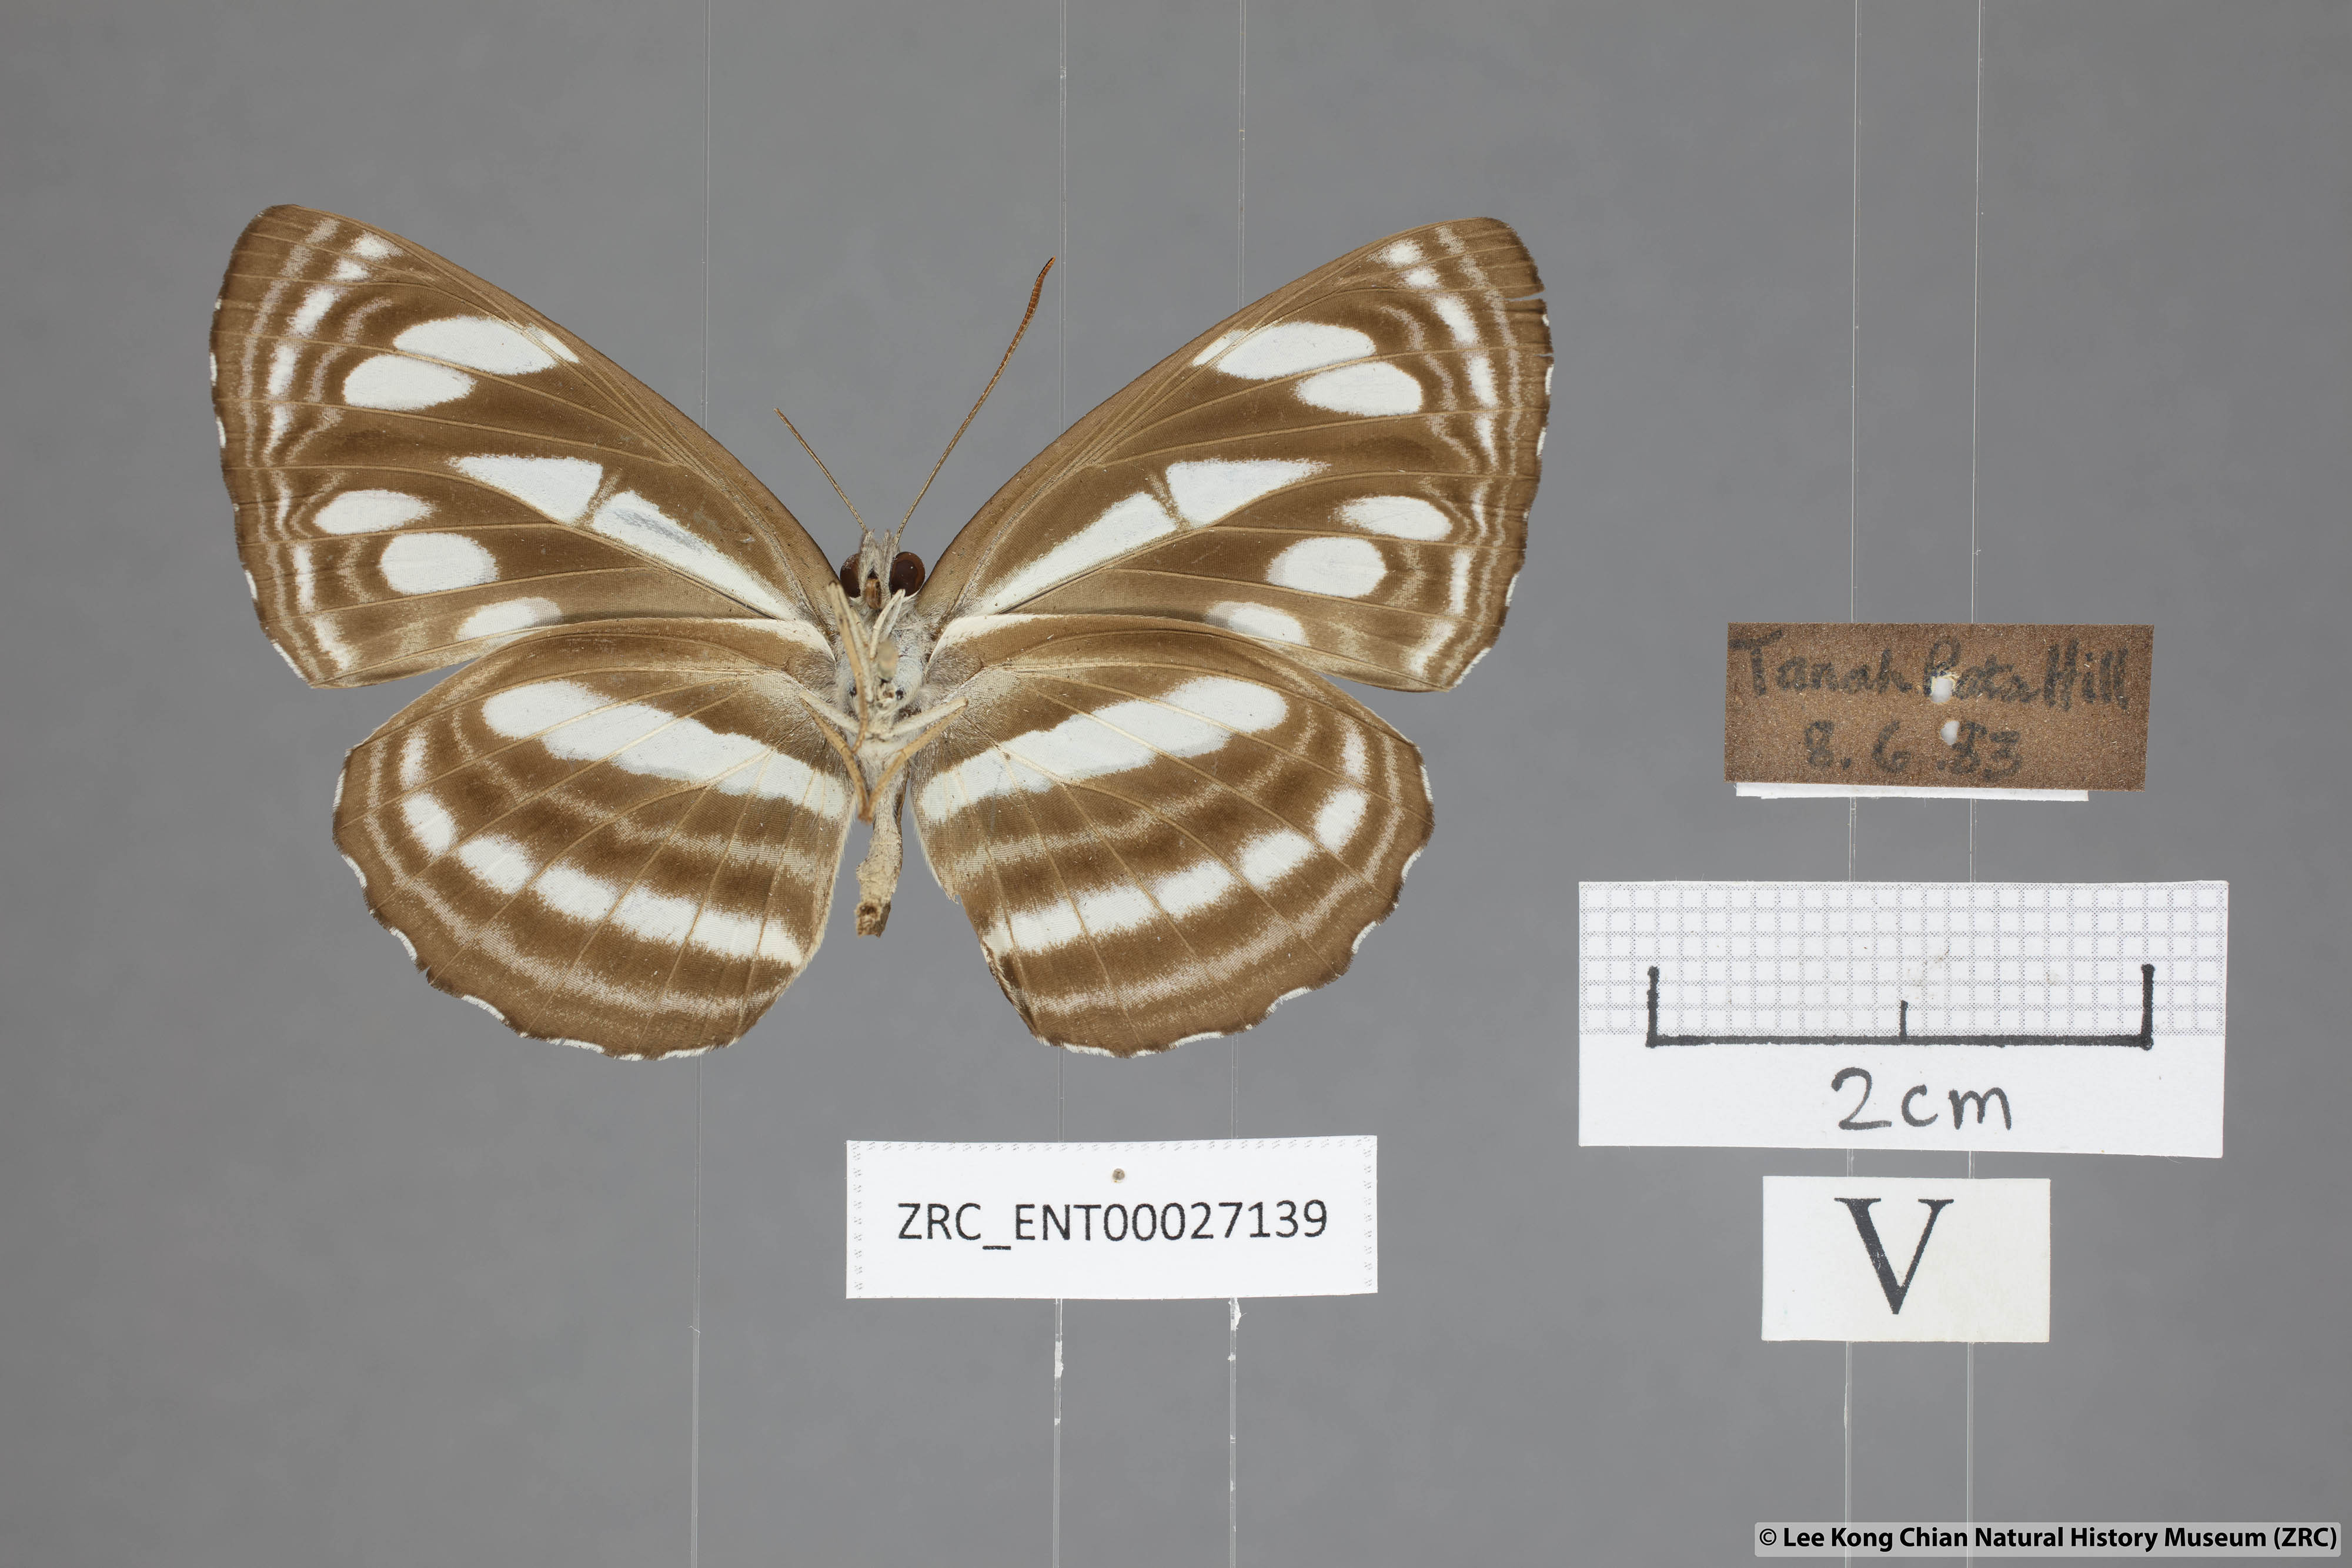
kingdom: Animalia
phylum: Arthropoda
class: Insecta
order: Lepidoptera
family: Nymphalidae
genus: Neptis
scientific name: Neptis clinioides
